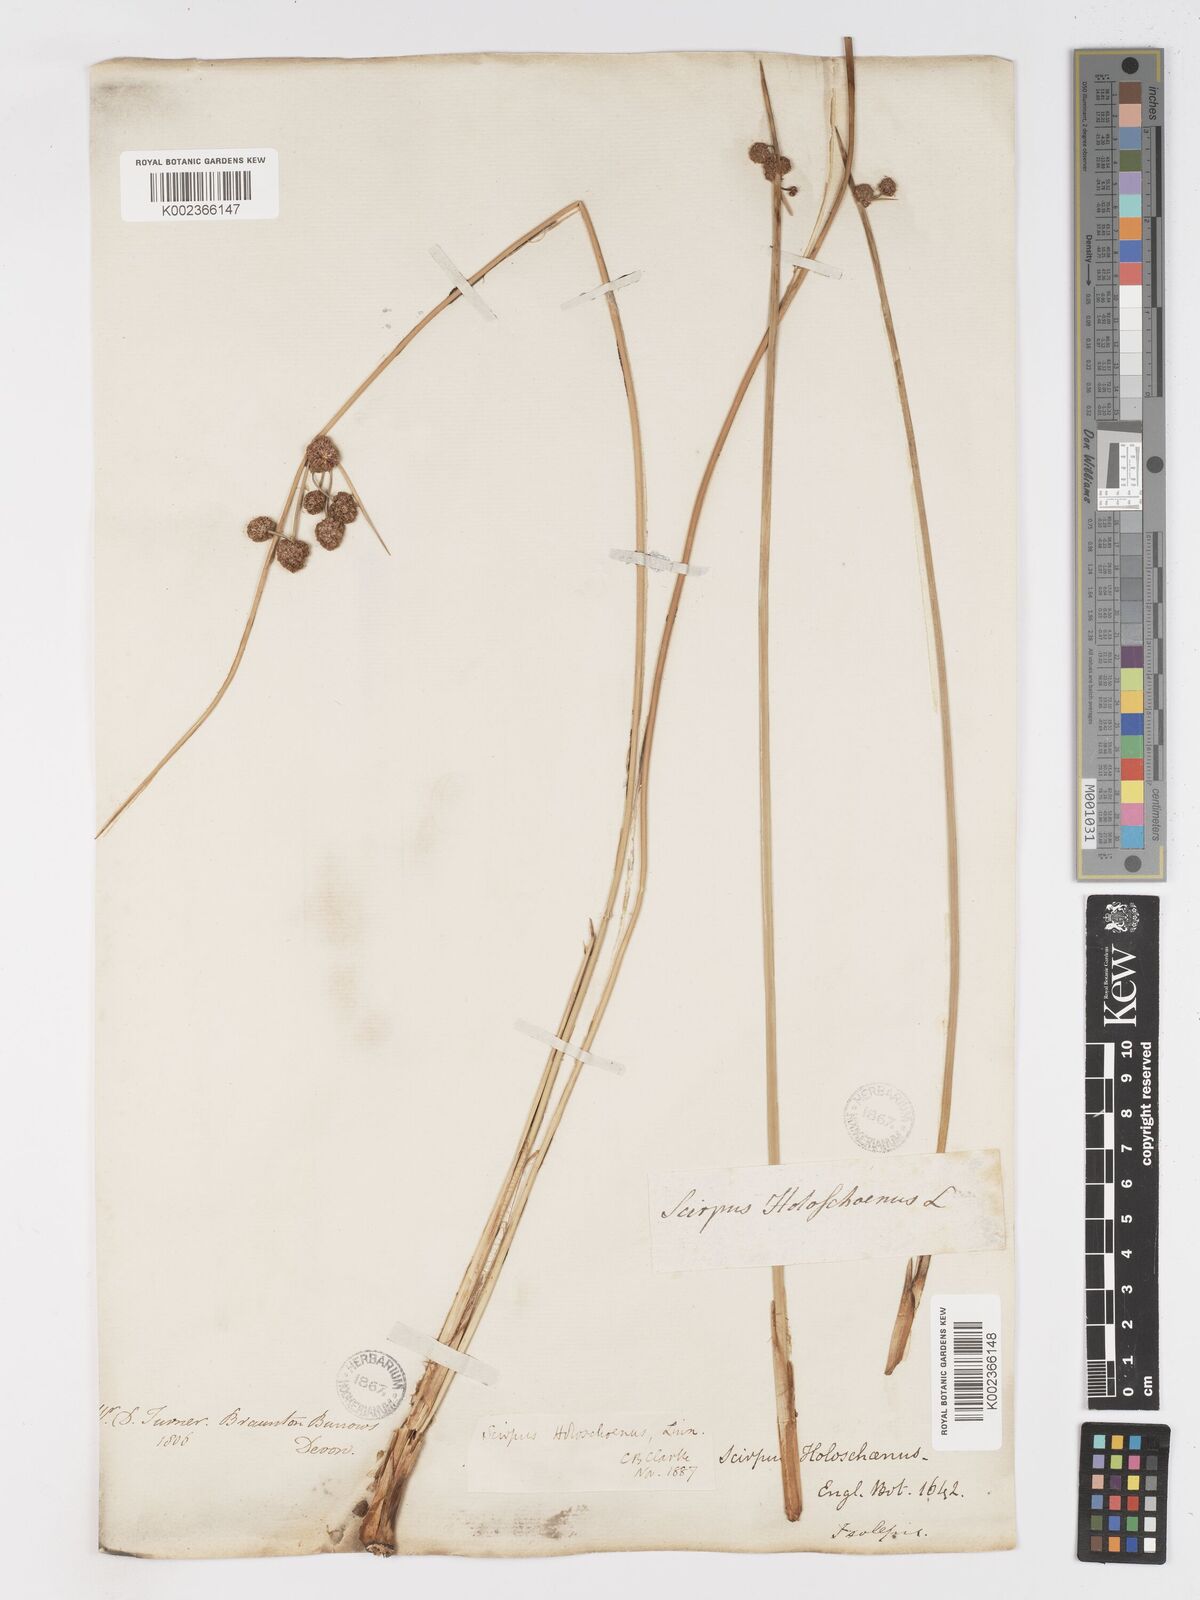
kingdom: Plantae
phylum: Tracheophyta
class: Liliopsida
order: Poales
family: Cyperaceae
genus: Scirpoides
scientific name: Scirpoides holoschoenus
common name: Round-headed club-rush
